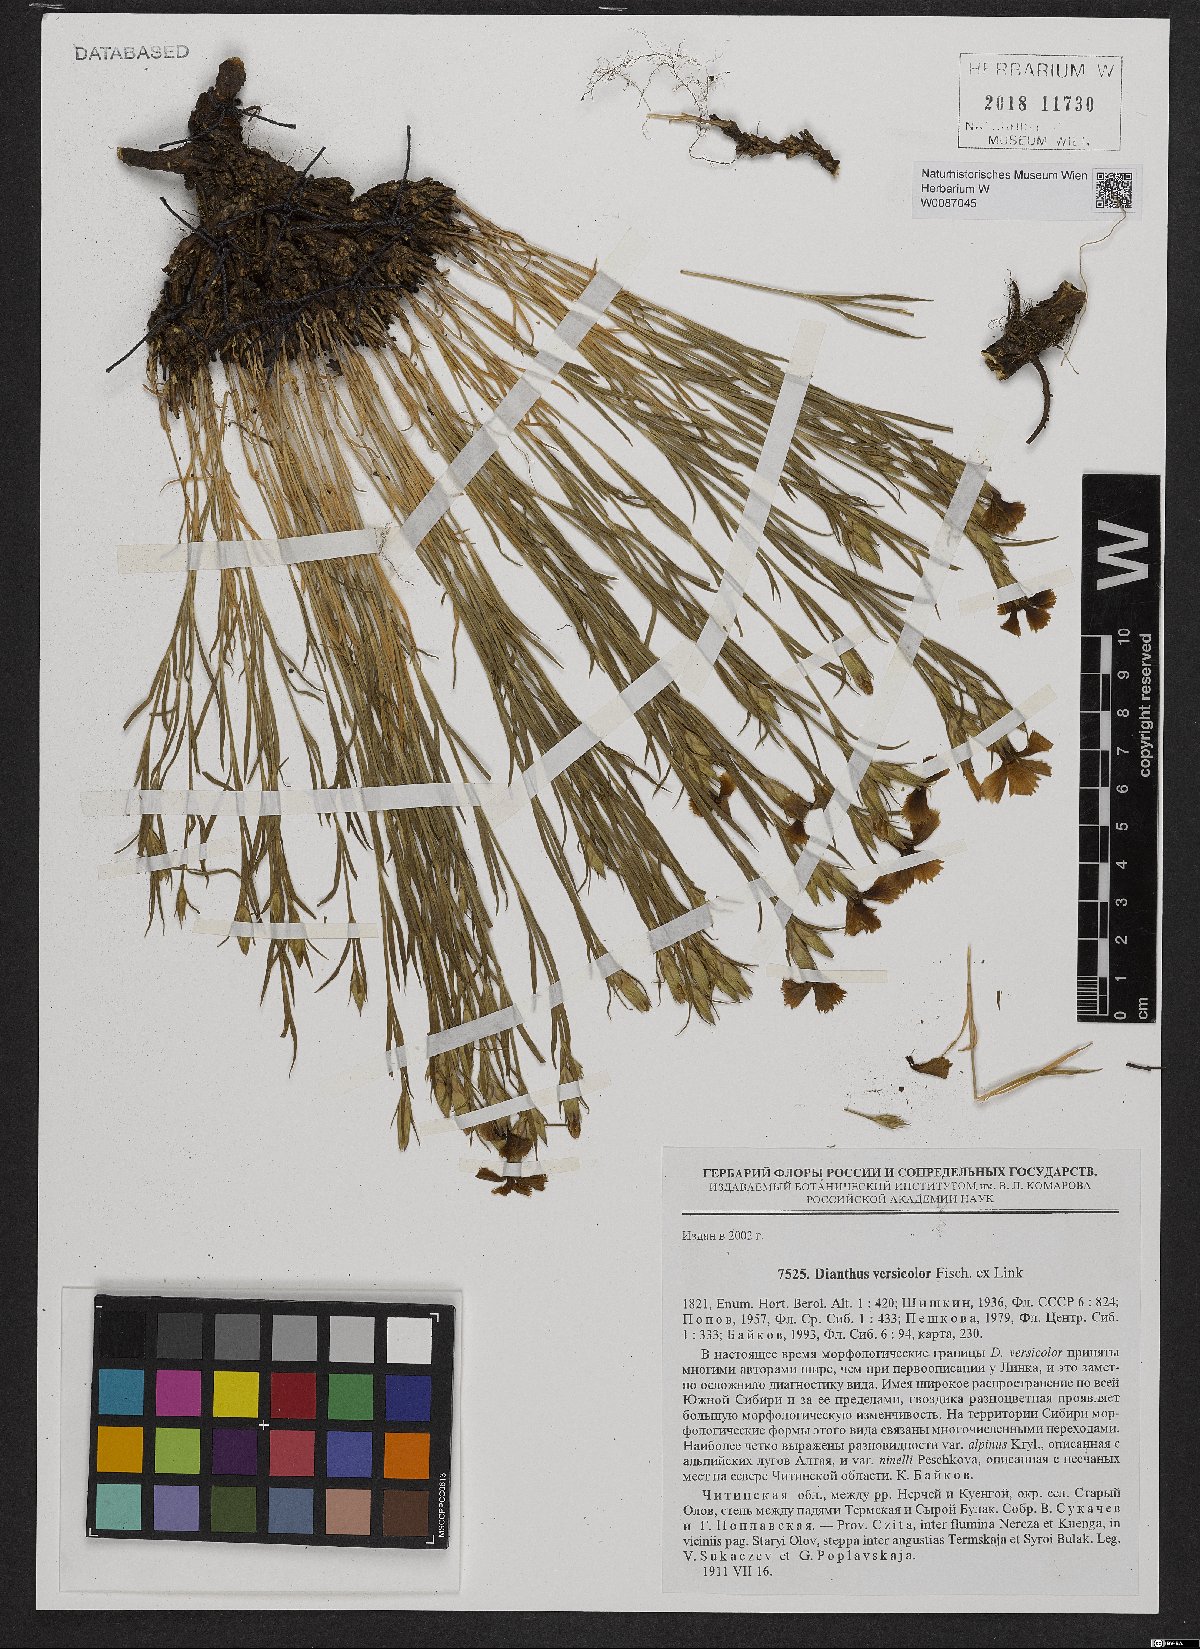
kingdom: Plantae
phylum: Tracheophyta
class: Magnoliopsida
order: Caryophyllales
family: Caryophyllaceae
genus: Dianthus
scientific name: Dianthus chinensis
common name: Rainbow pink
